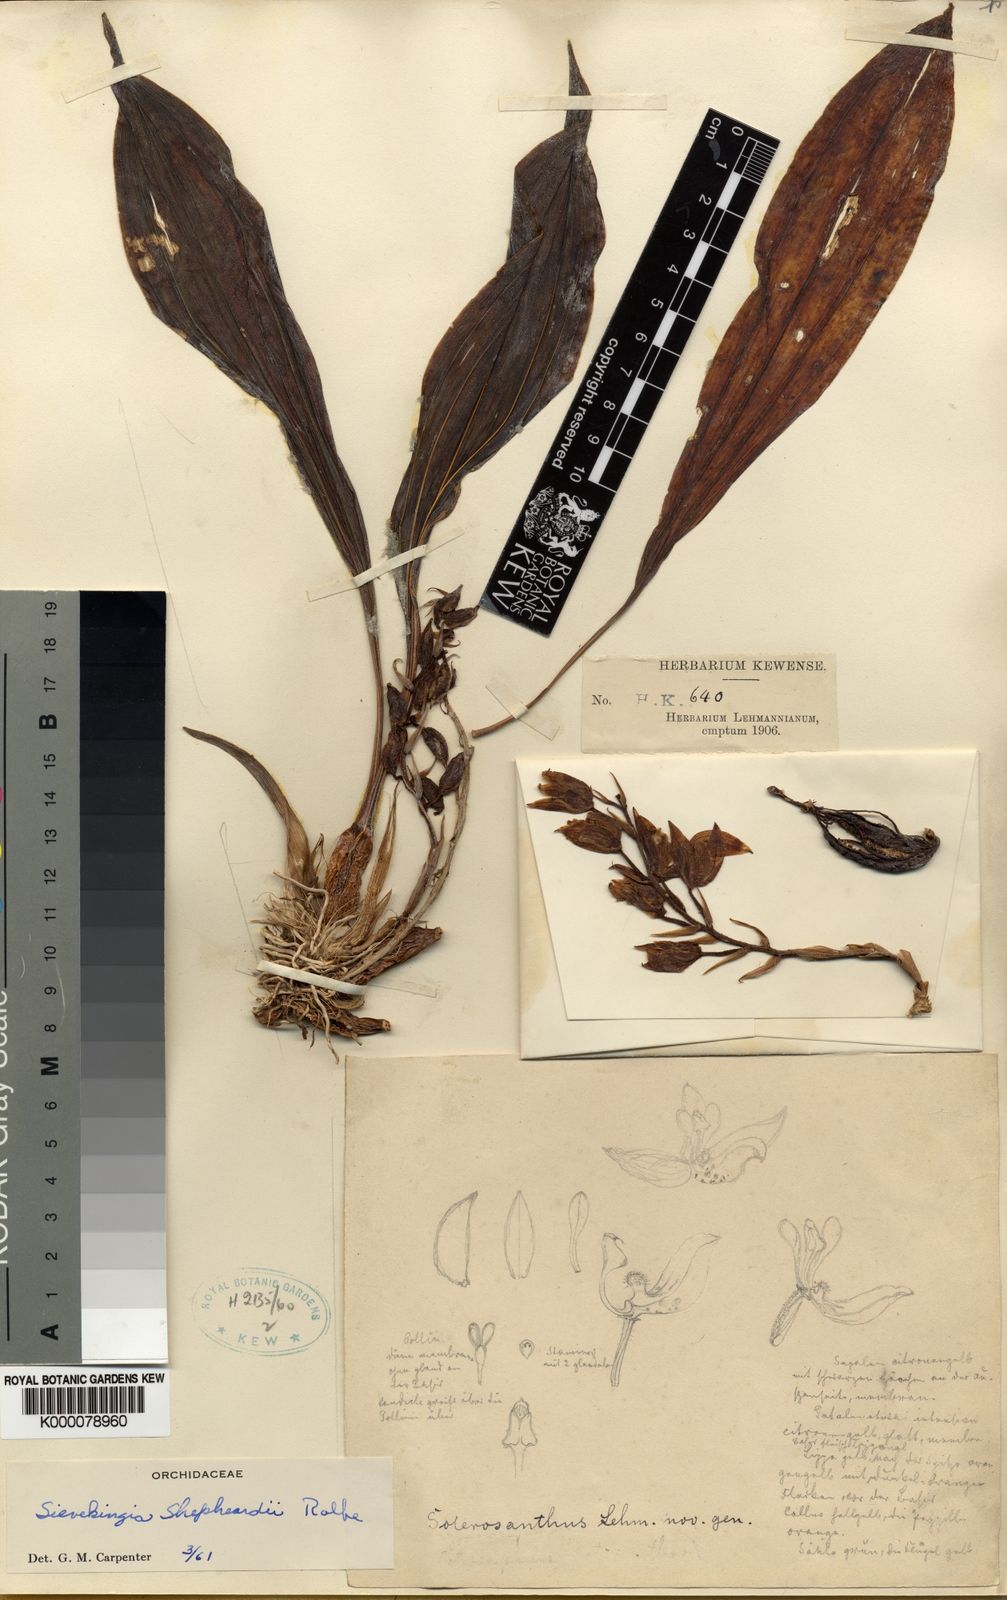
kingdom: Plantae
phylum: Tracheophyta
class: Liliopsida
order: Asparagales
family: Orchidaceae
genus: Soterosanthus
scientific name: Soterosanthus
